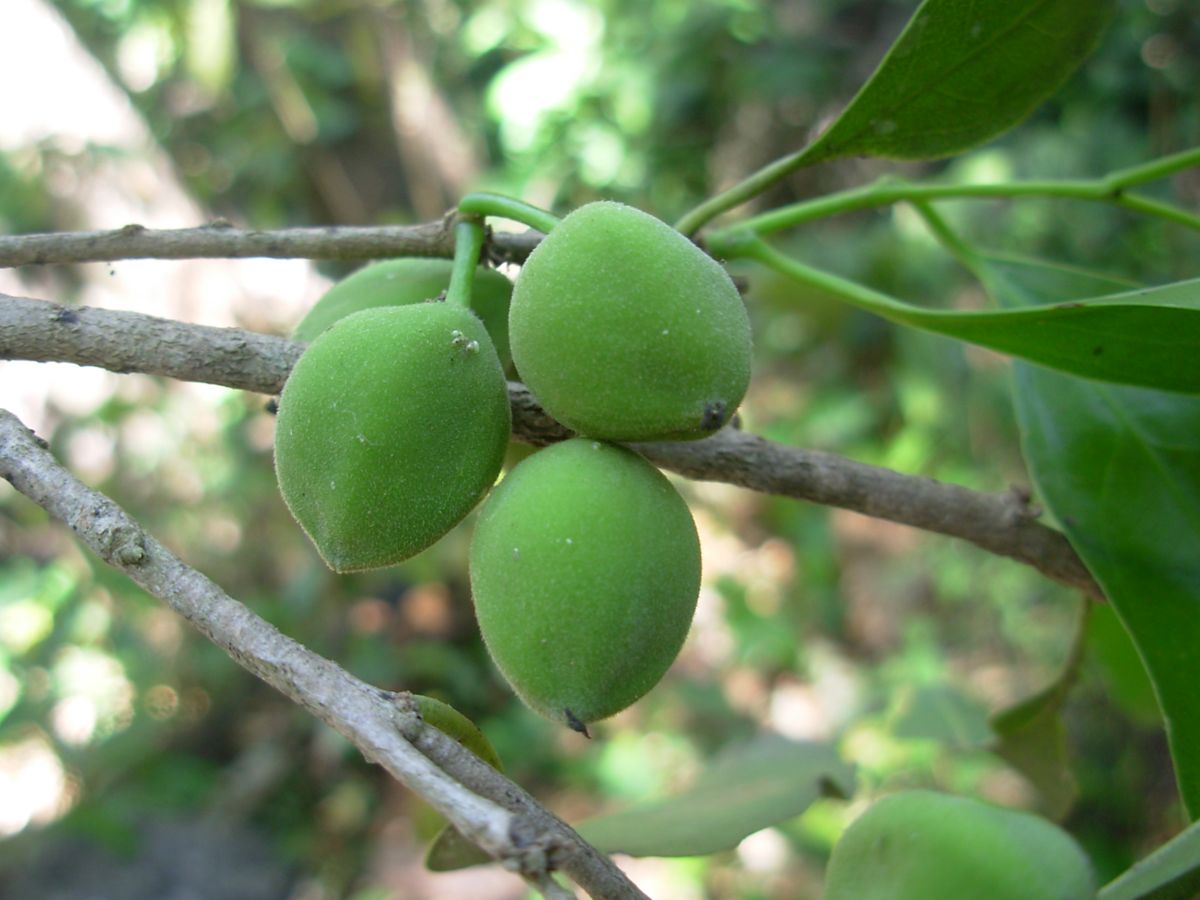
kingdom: Plantae
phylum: Tracheophyta
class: Magnoliopsida
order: Malpighiales
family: Putranjivaceae
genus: Drypetes
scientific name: Drypetes lateriflora
